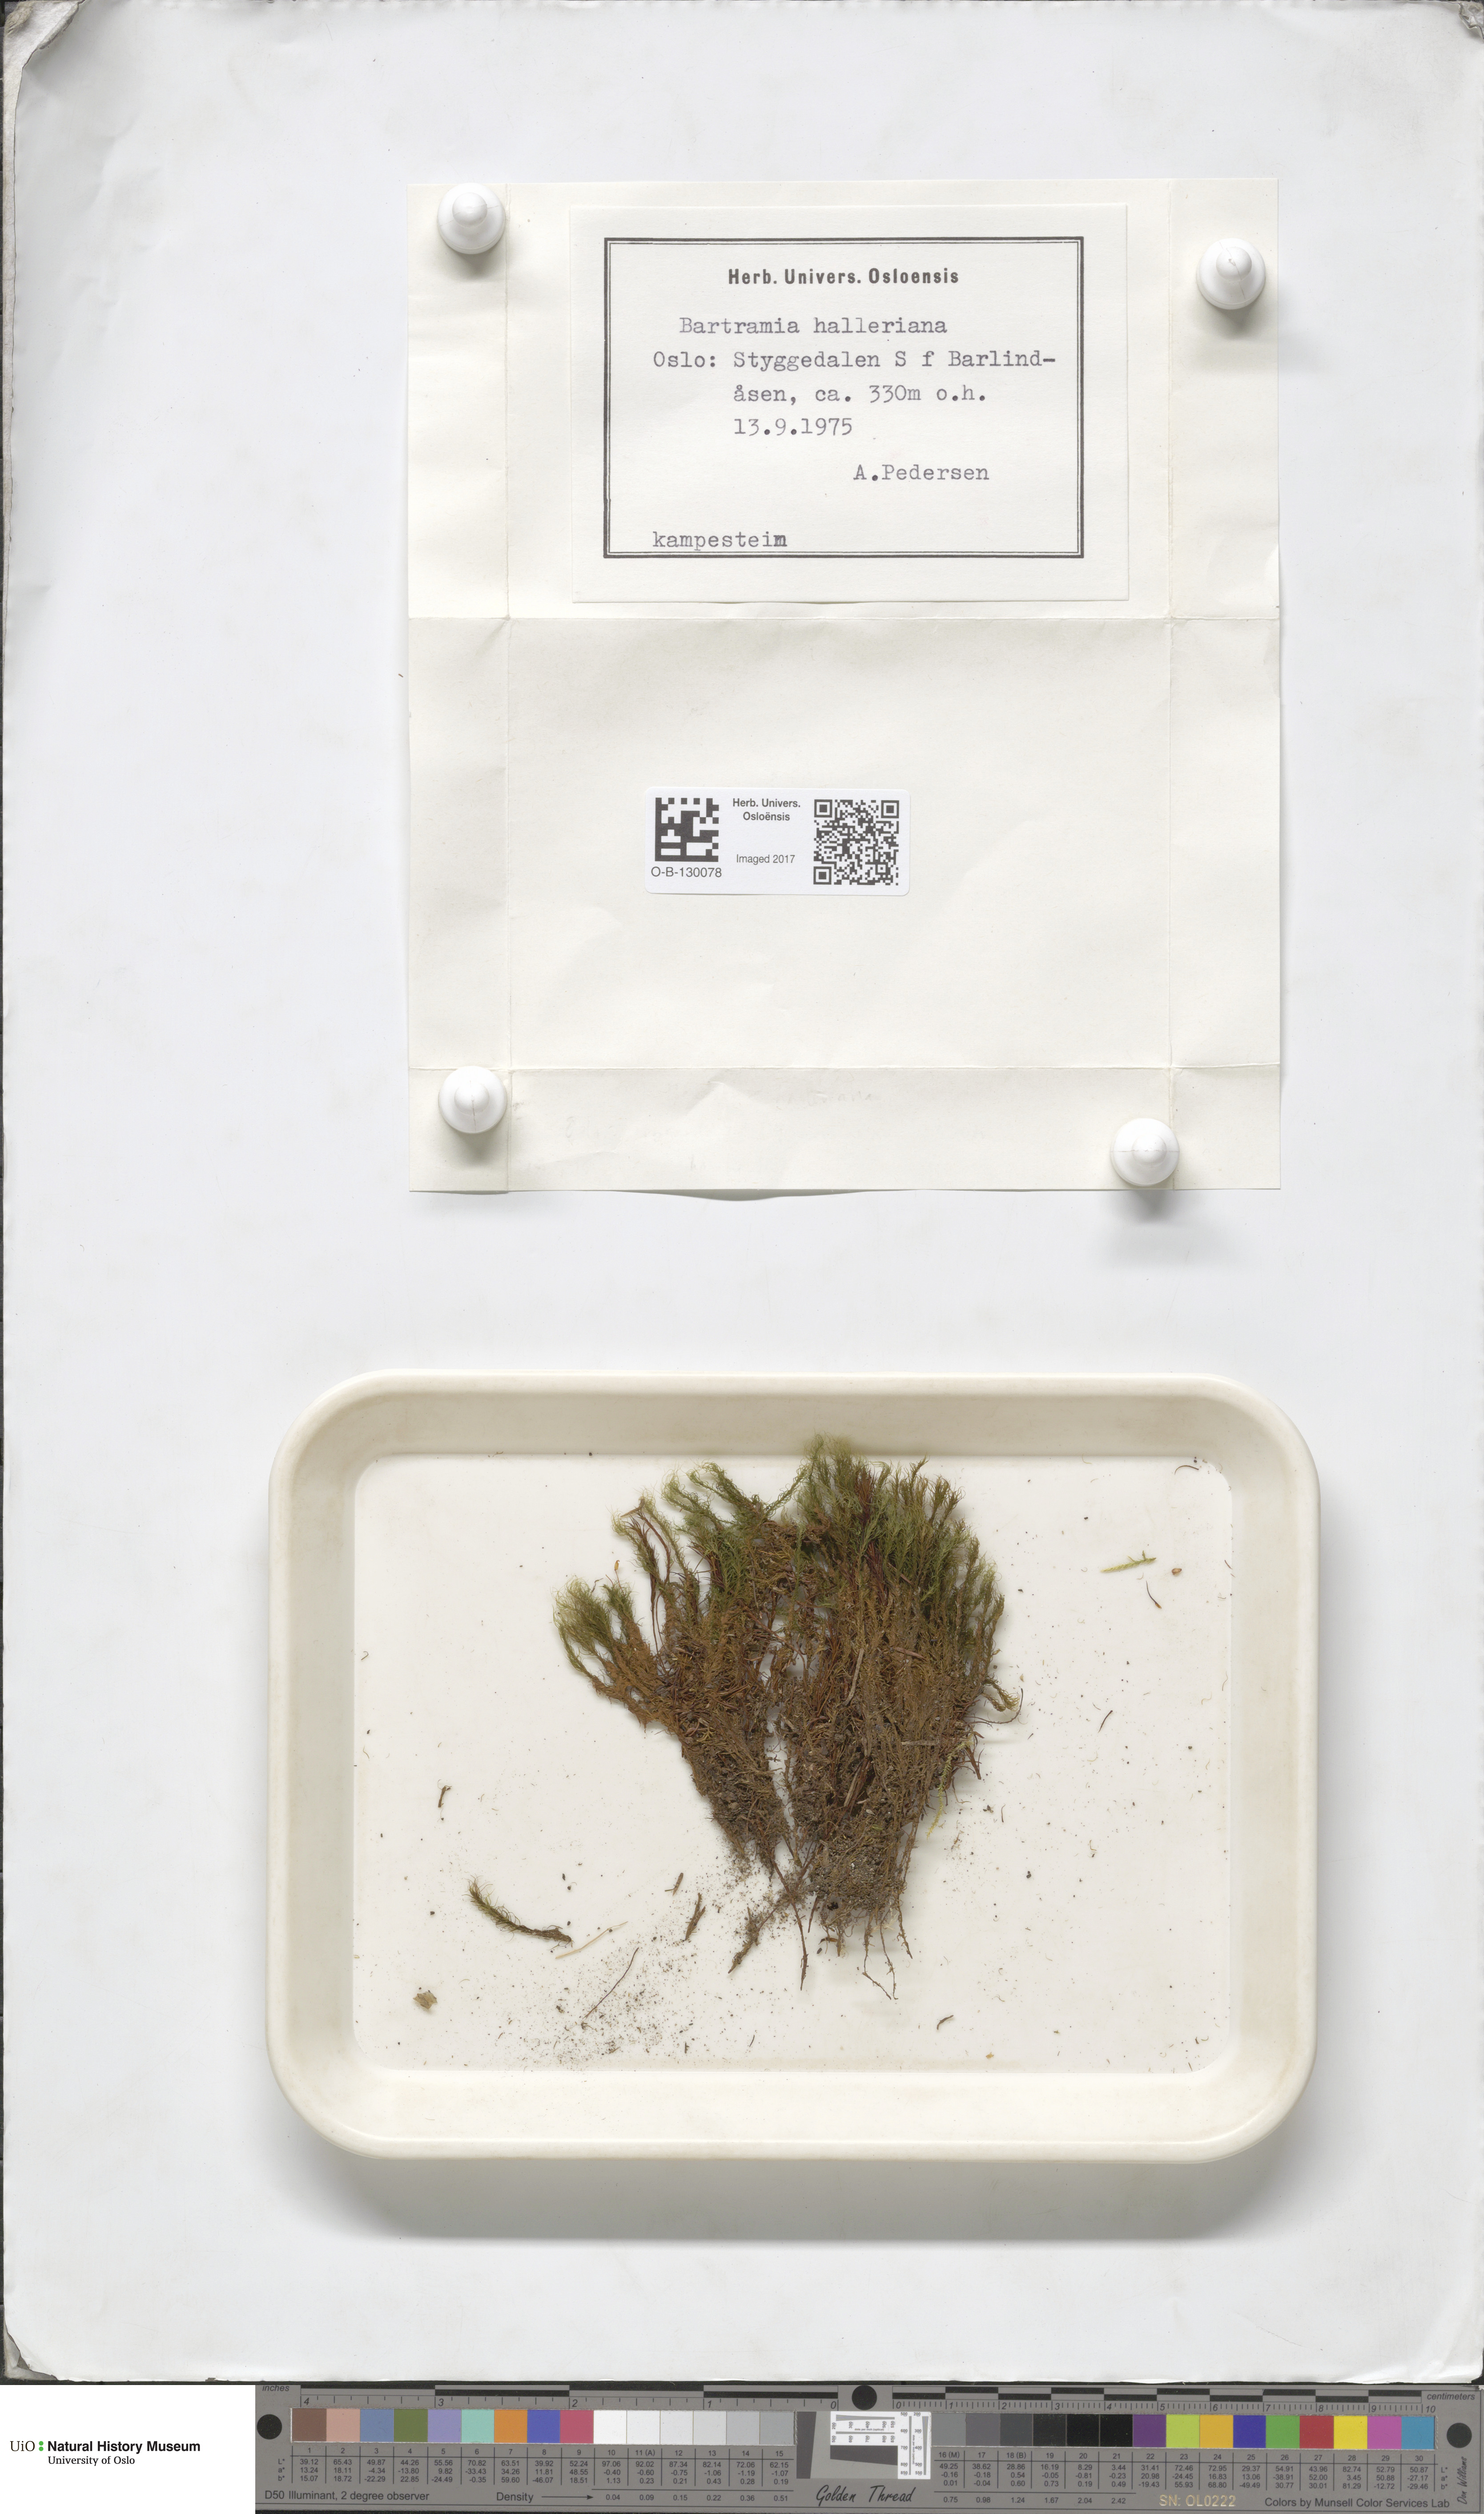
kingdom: Plantae
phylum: Bryophyta
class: Bryopsida
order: Bartramiales
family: Bartramiaceae
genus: Bartramia
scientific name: Bartramia halleriana
